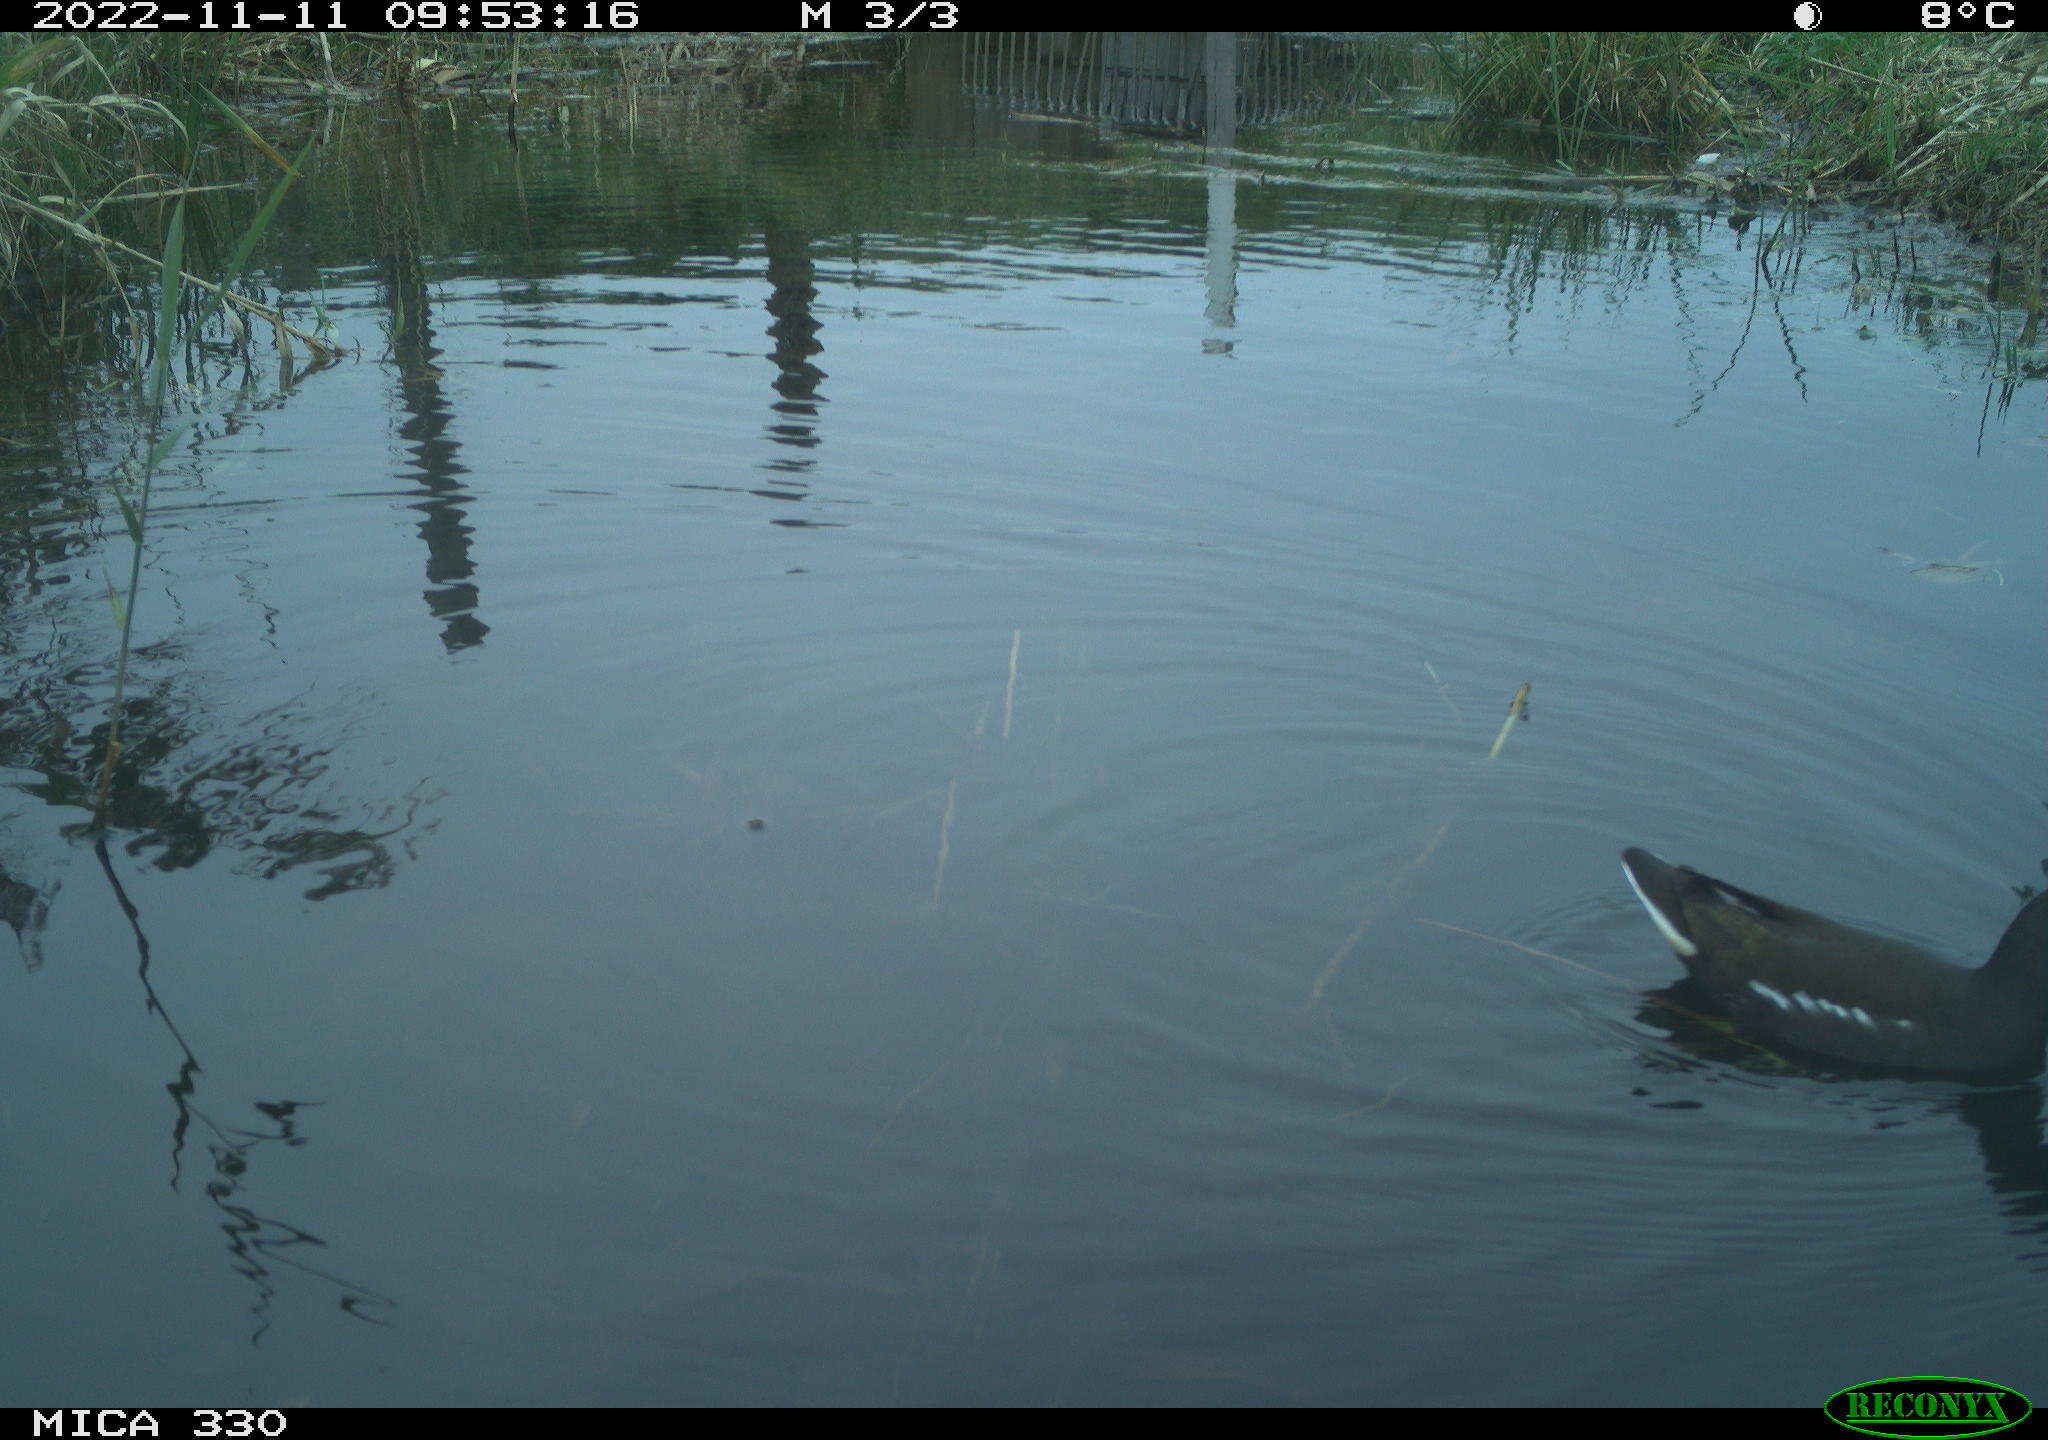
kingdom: Animalia
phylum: Chordata
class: Aves
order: Gruiformes
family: Rallidae
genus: Gallinula
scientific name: Gallinula chloropus
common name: Common moorhen
